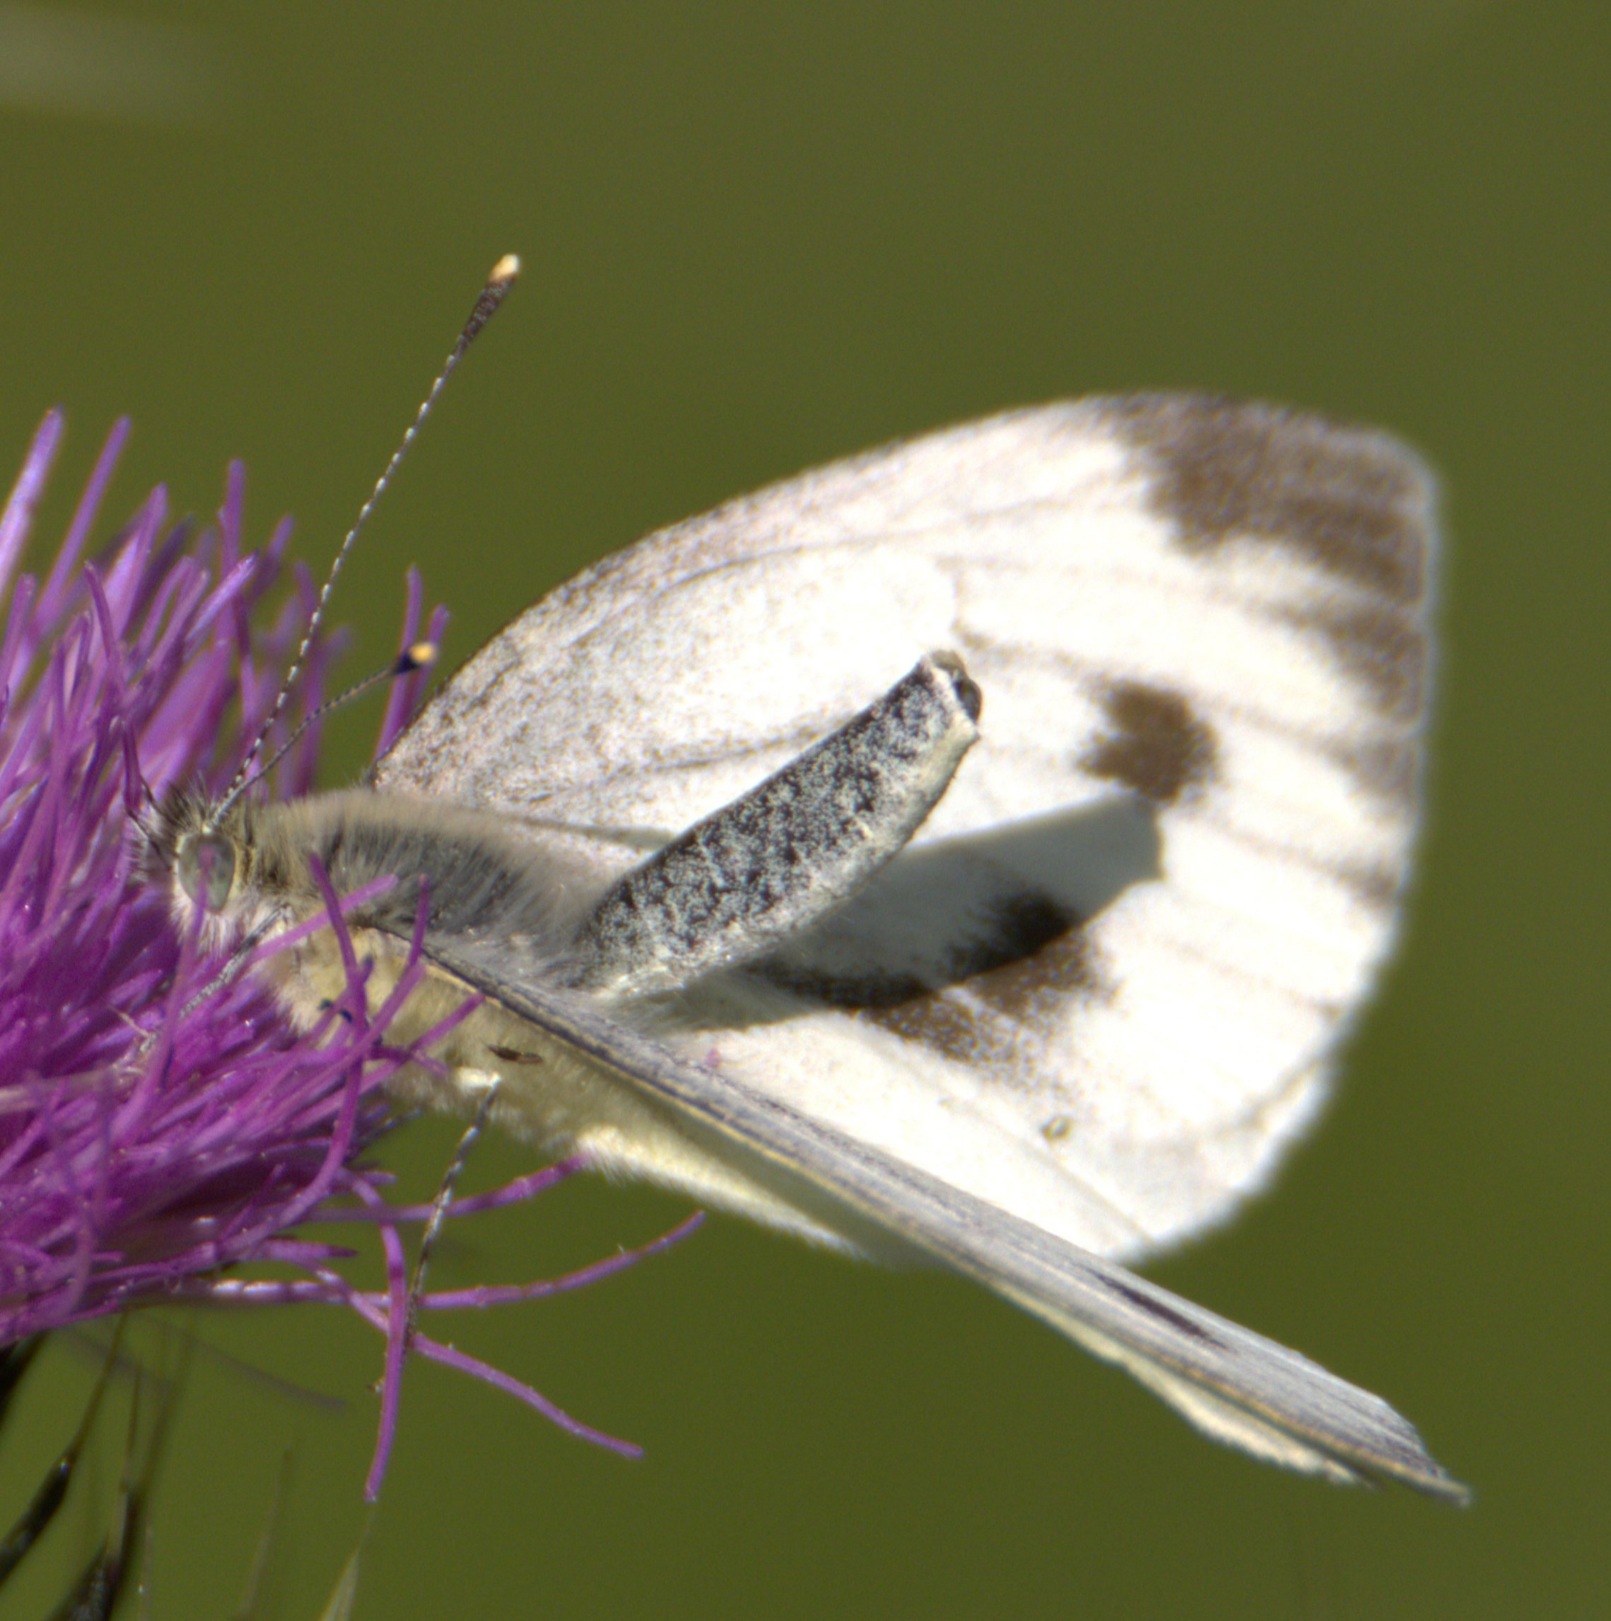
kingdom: Animalia
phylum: Arthropoda
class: Insecta
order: Lepidoptera
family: Pieridae
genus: Pieris
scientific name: Pieris napi
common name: Grønåret kålsommerfugl
